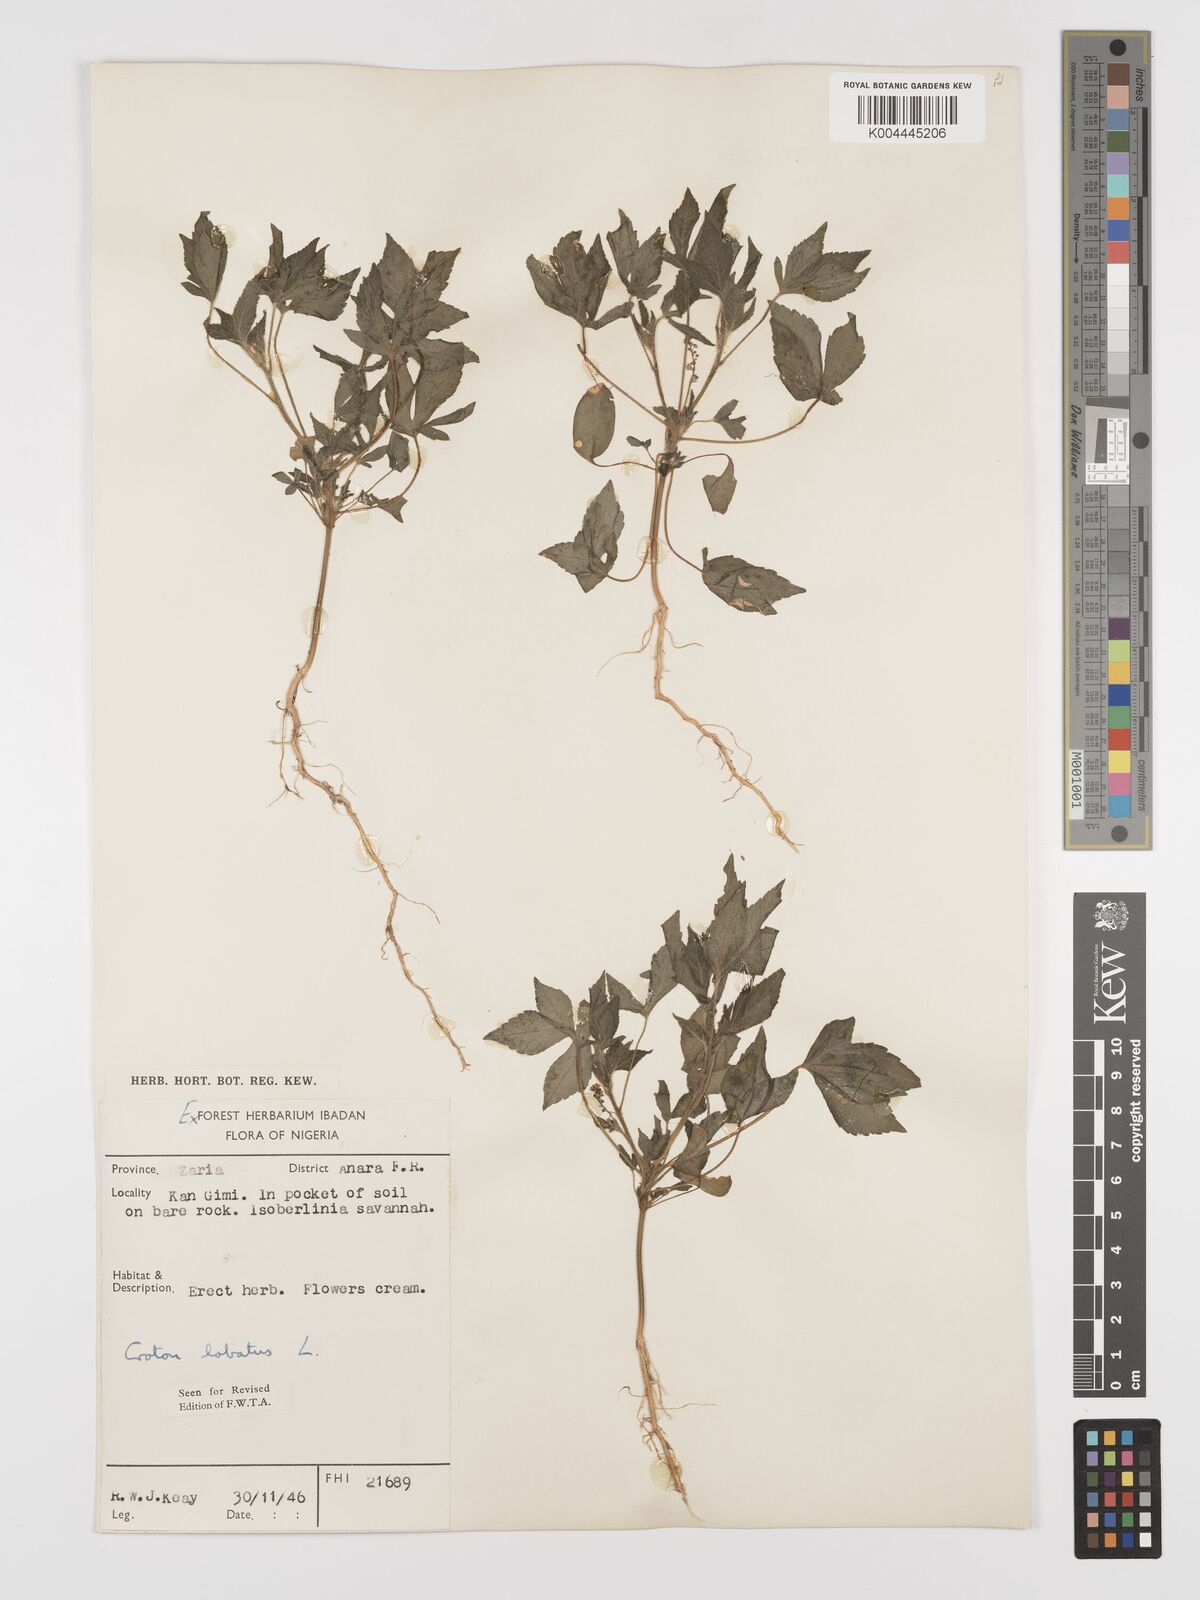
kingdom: Plantae
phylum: Tracheophyta
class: Magnoliopsida
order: Malpighiales
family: Euphorbiaceae
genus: Astraea
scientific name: Astraea lobata
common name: Lobed croton
